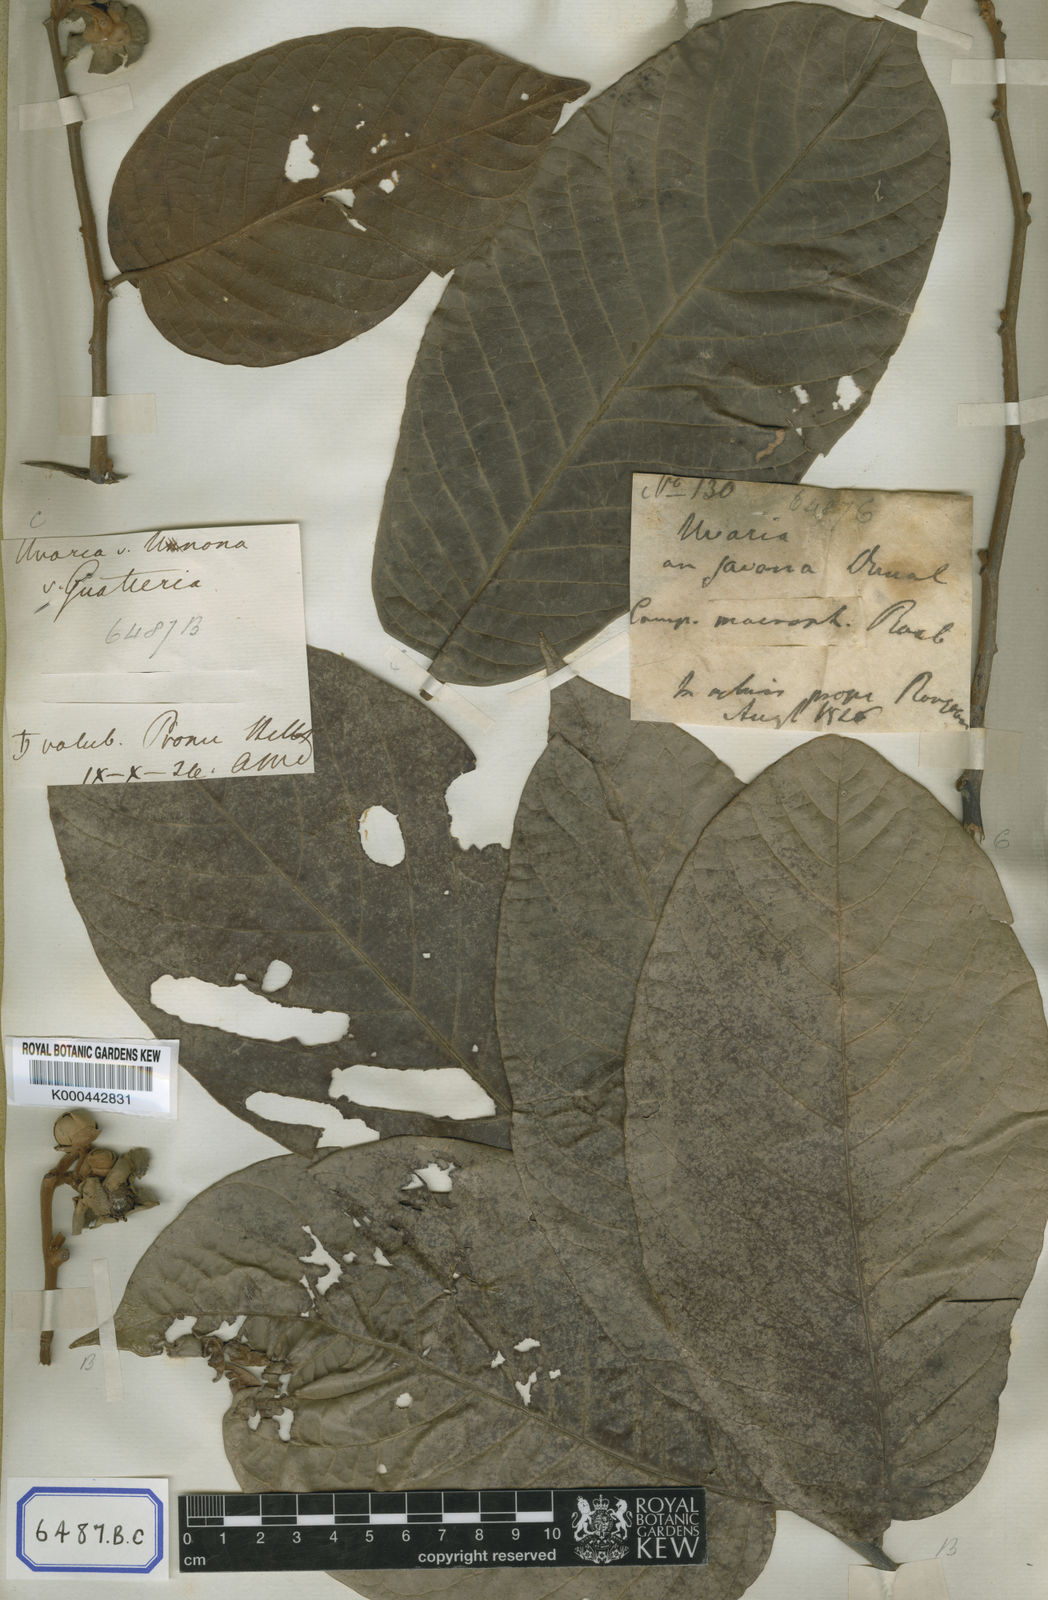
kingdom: Plantae
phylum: Tracheophyta
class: Magnoliopsida
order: Magnoliales
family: Annonaceae
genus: Uvaria
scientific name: Uvaria littoralis
